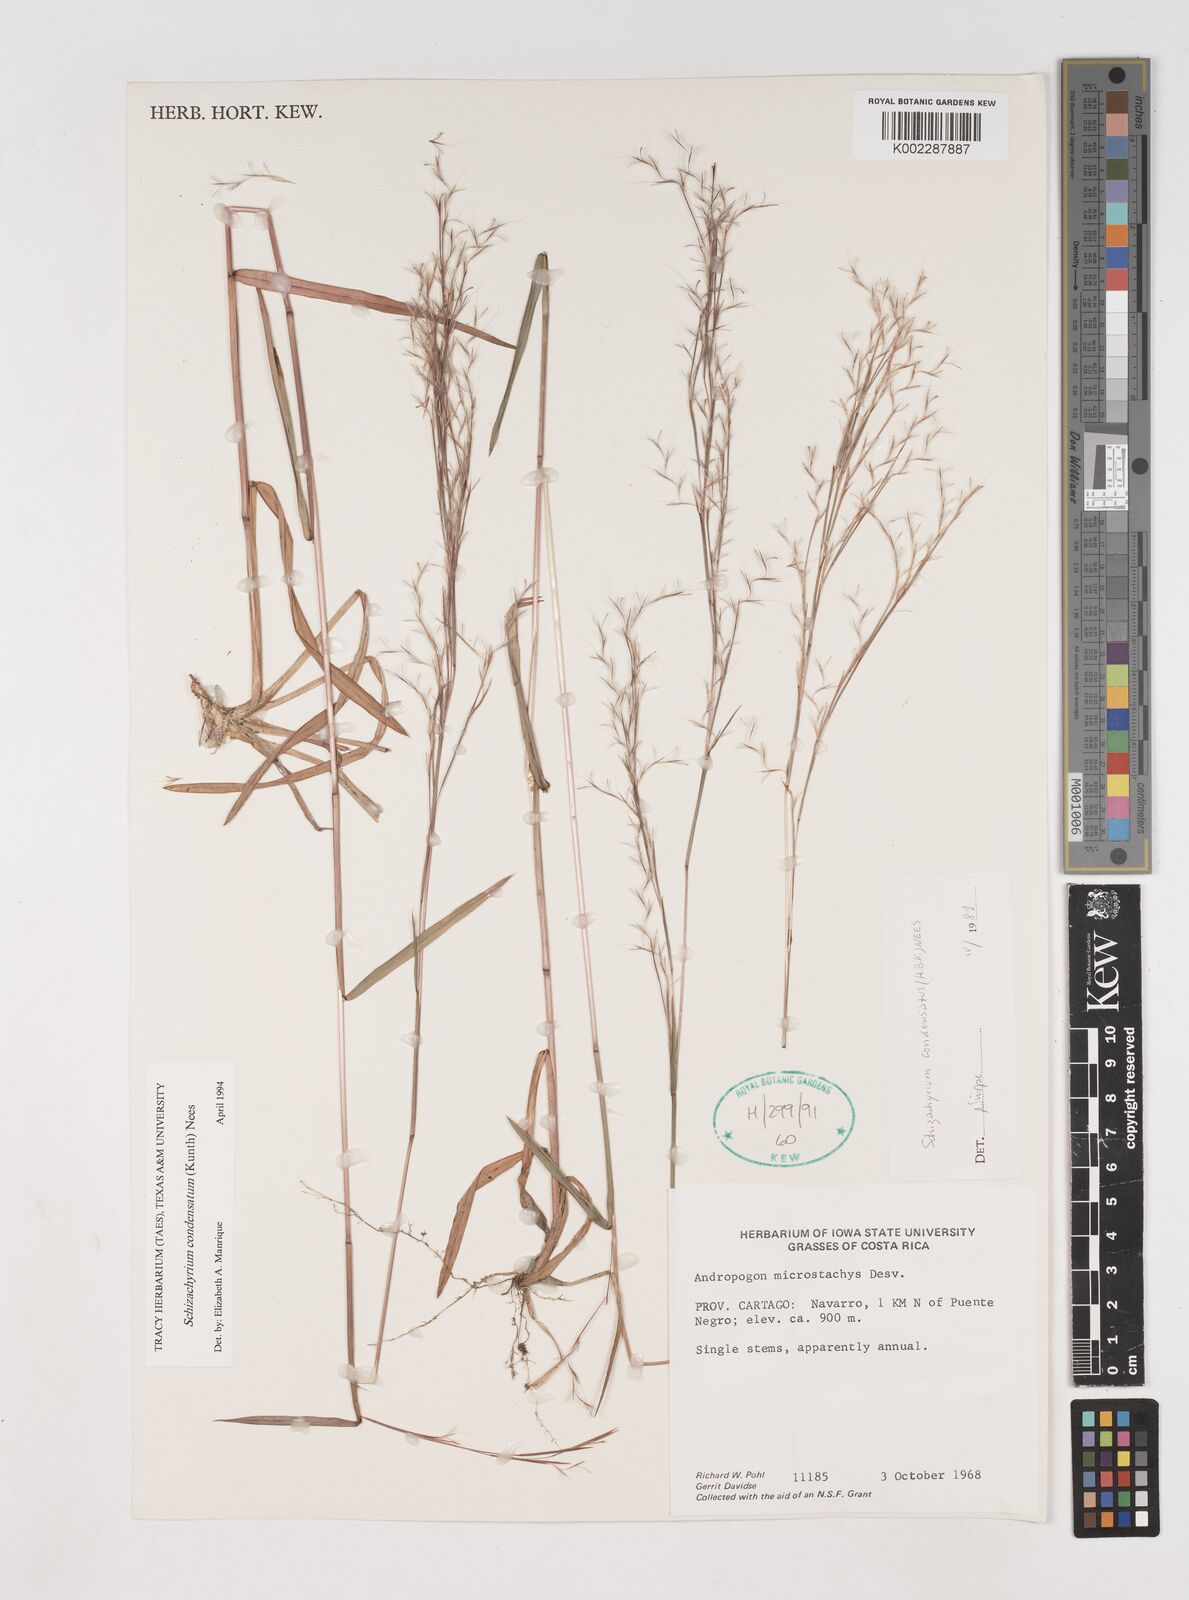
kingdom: Plantae
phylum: Tracheophyta
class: Liliopsida
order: Poales
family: Poaceae
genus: Schizachyrium
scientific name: Schizachyrium condensatum
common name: Bush beardgrass
